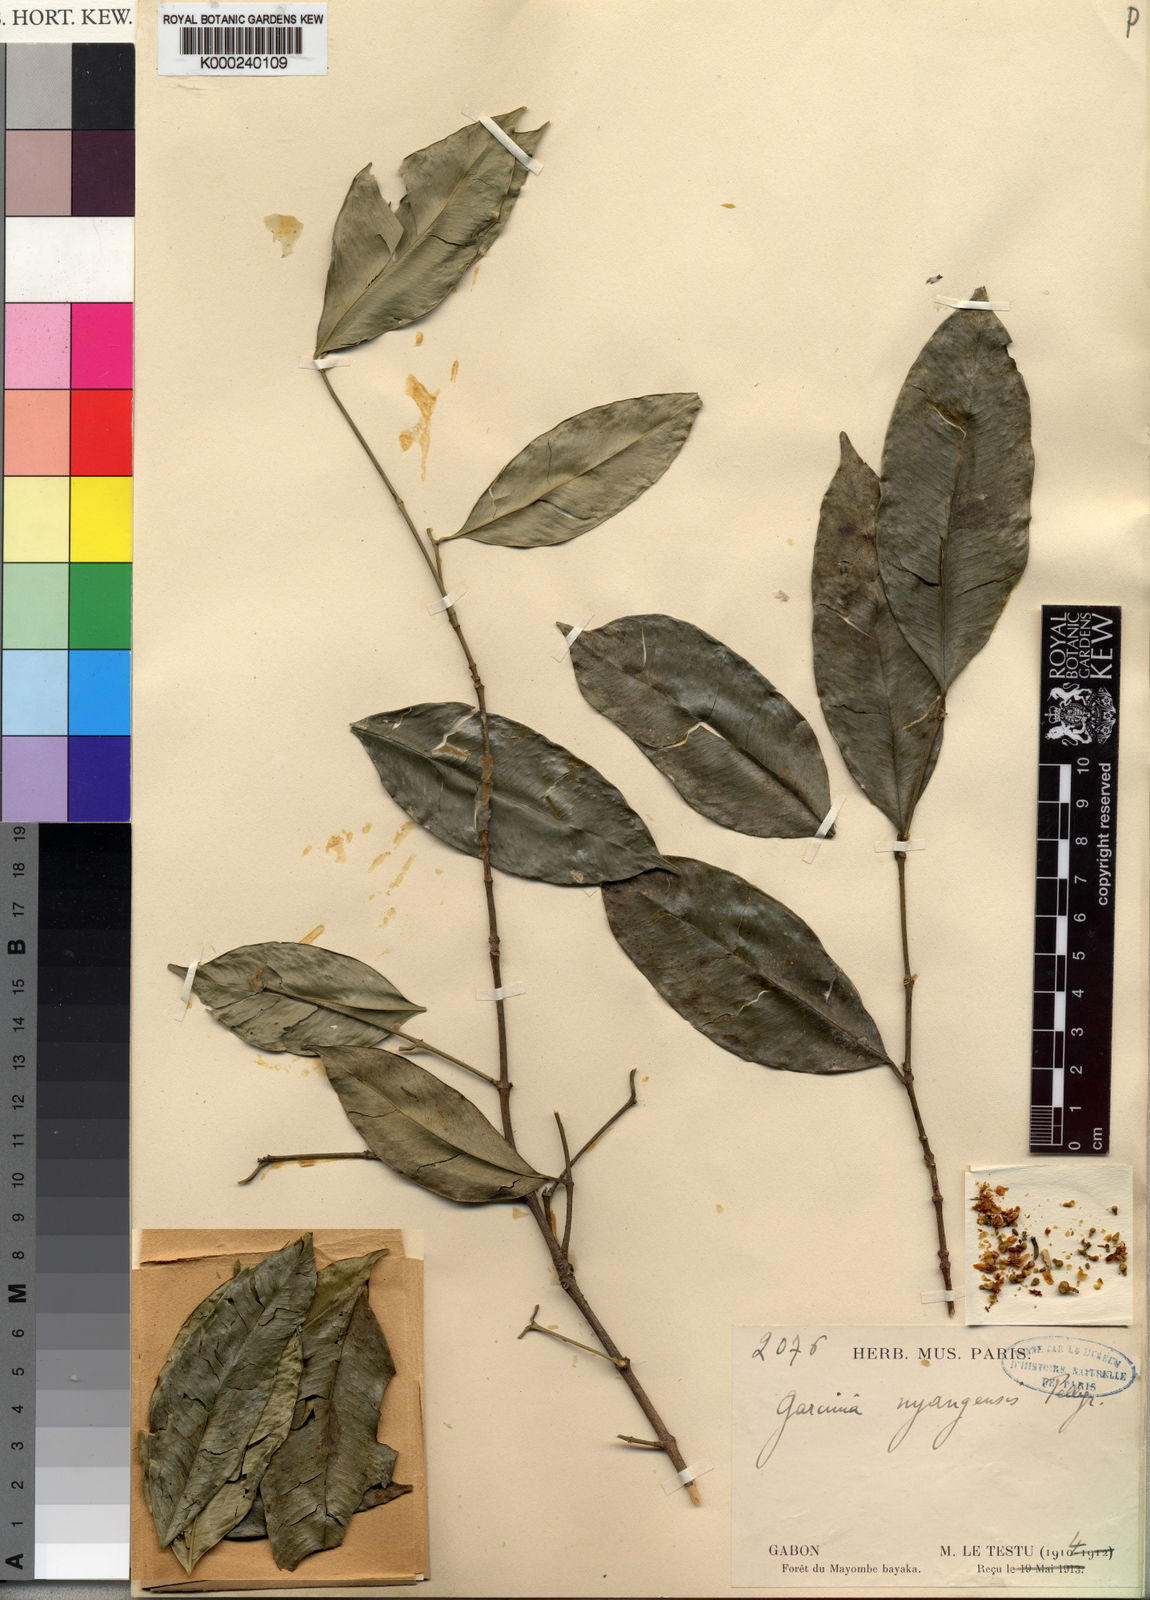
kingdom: Plantae
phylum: Tracheophyta
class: Magnoliopsida
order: Malpighiales
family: Clusiaceae
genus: Garcinia
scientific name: Garcinia epunctata
